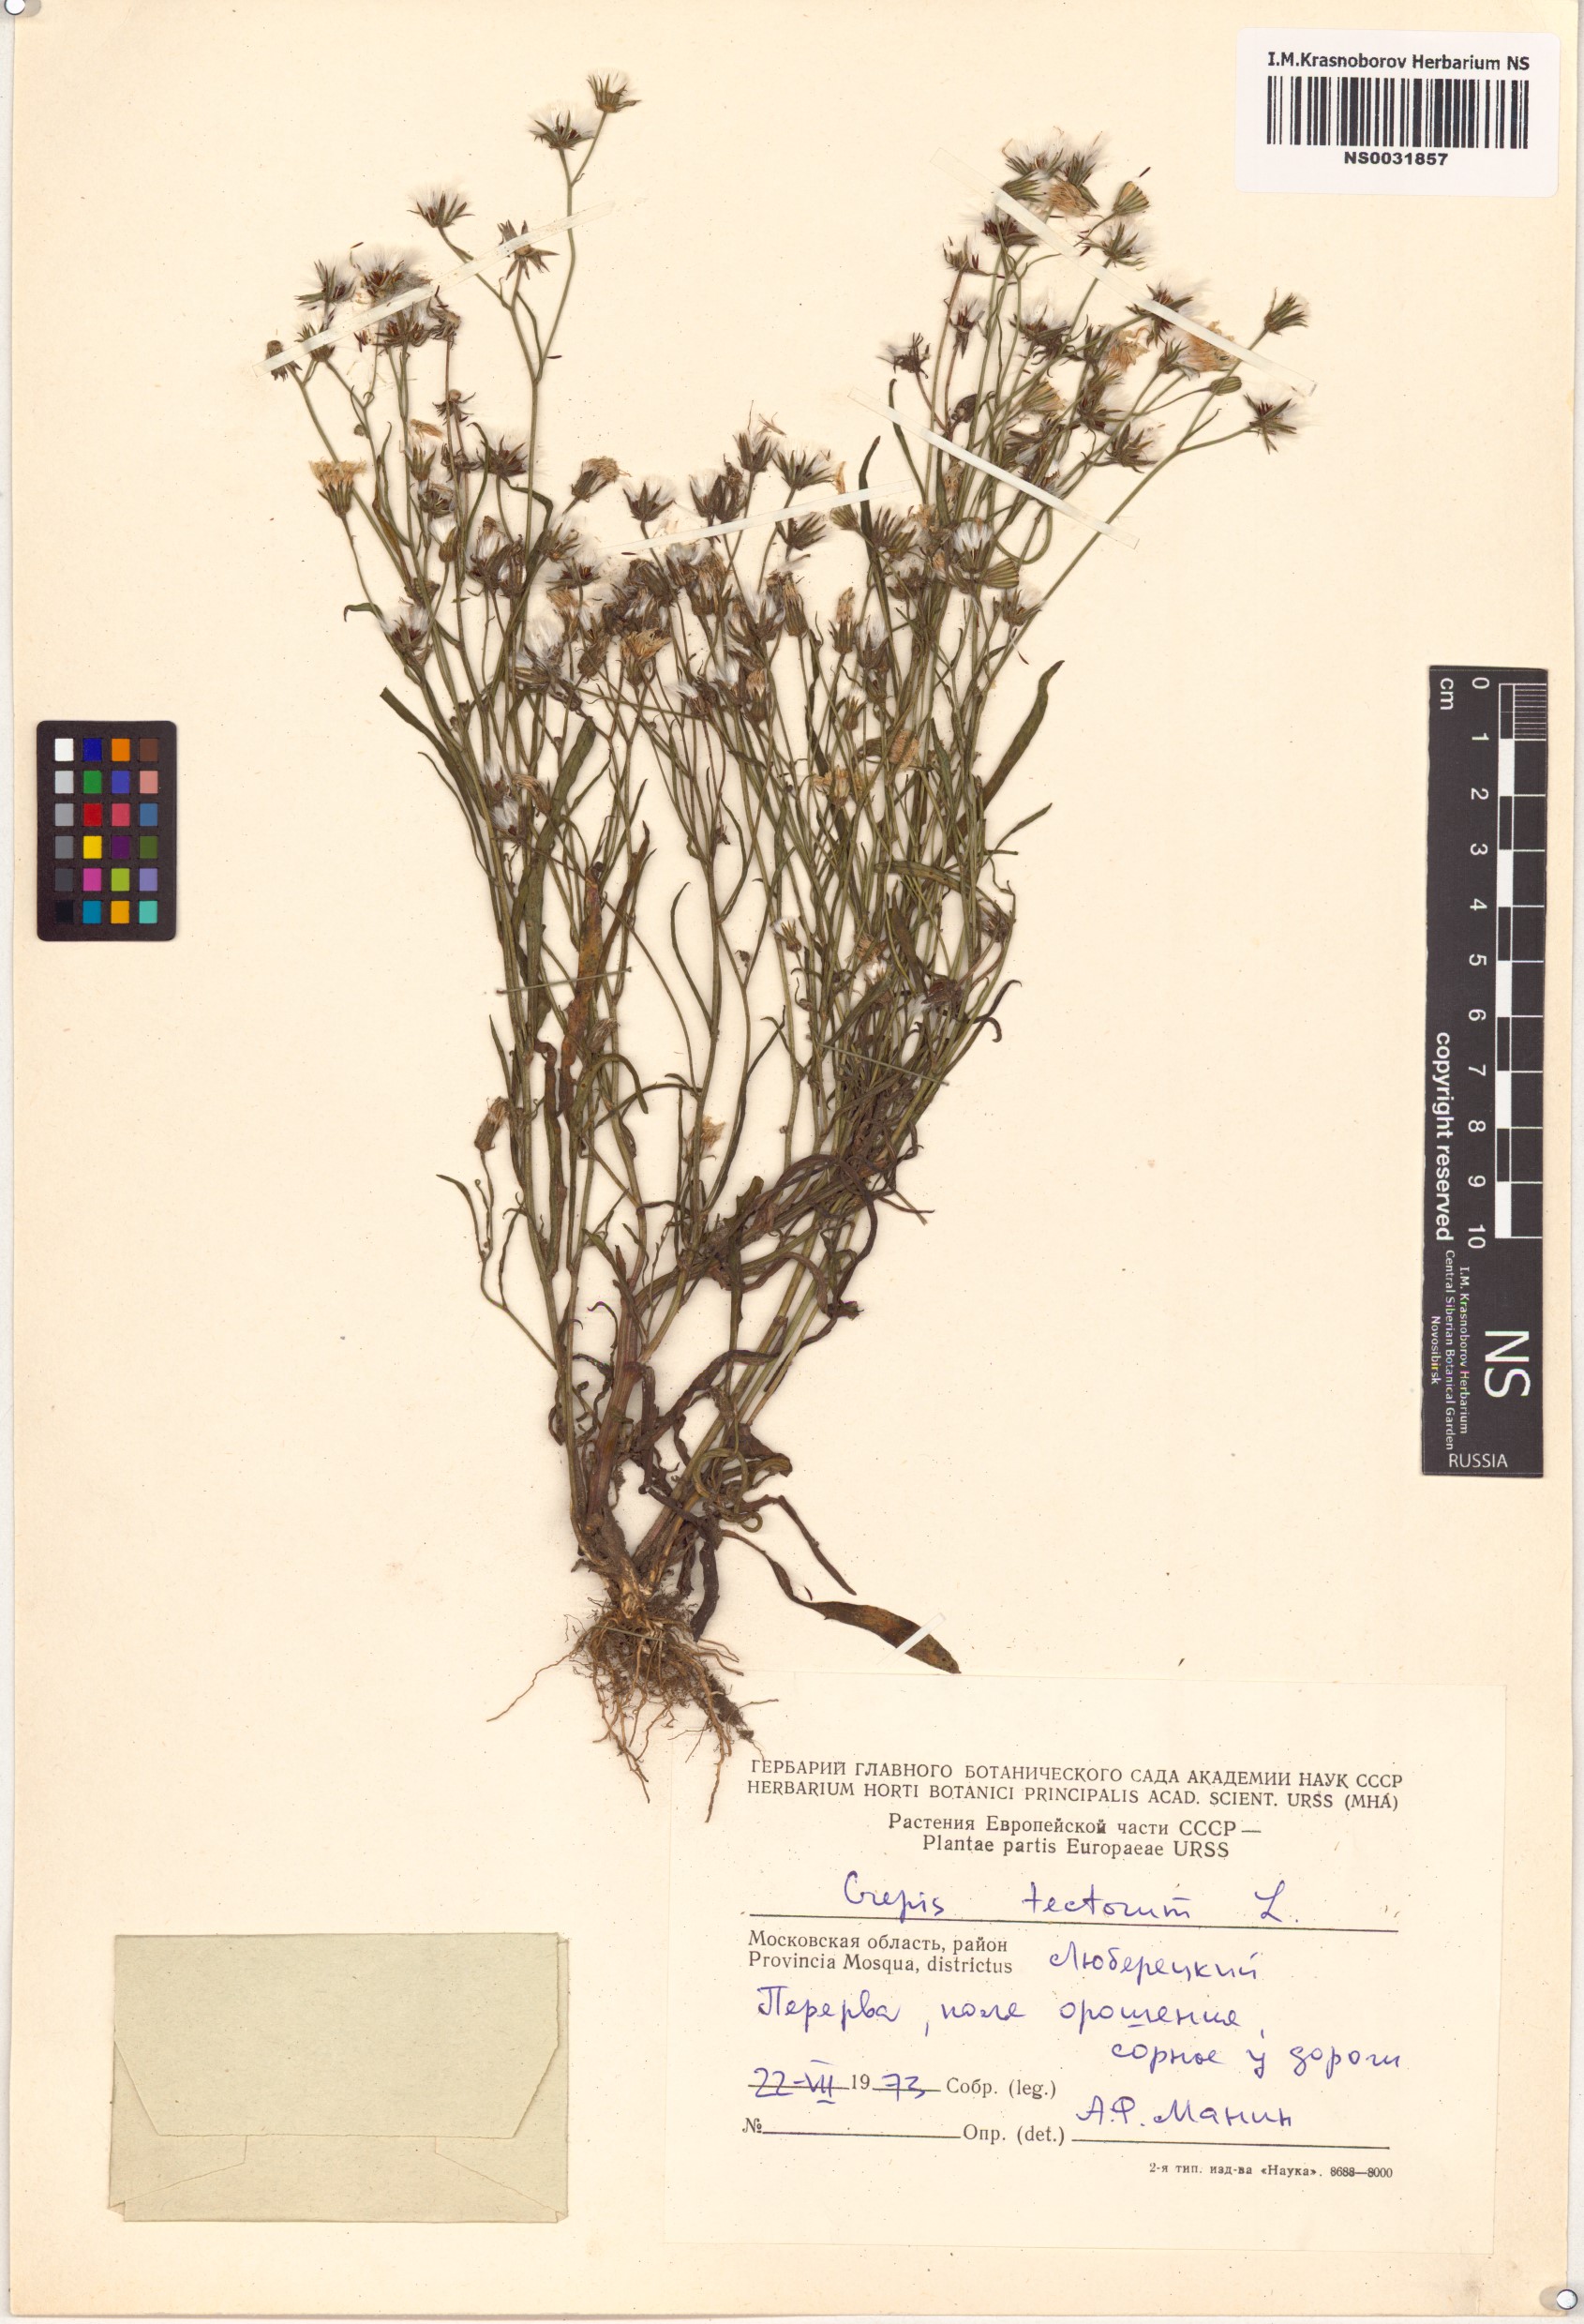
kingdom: Plantae
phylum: Tracheophyta
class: Magnoliopsida
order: Asterales
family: Asteraceae
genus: Crepis
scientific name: Crepis tectorum
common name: Narrow-leaved hawk's-beard
